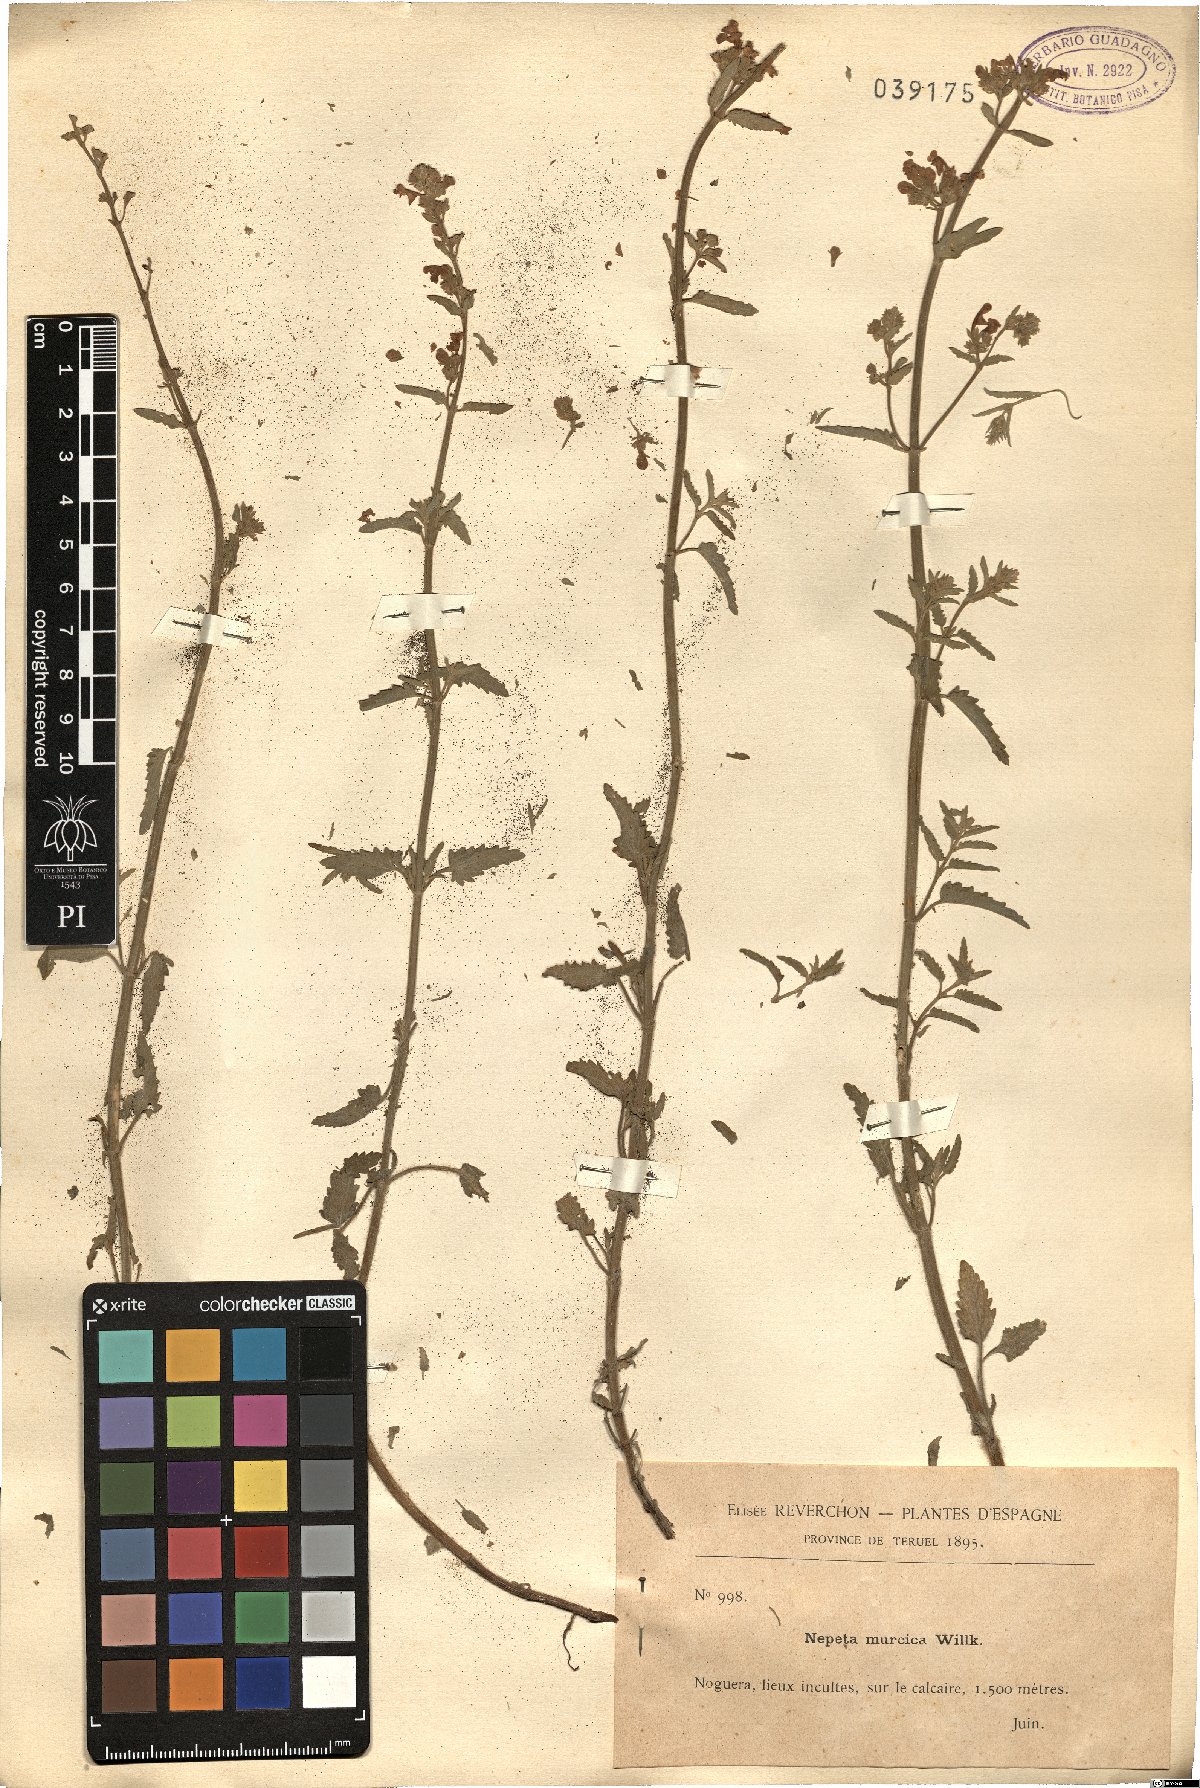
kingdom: Plantae
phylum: Tracheophyta
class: Magnoliopsida
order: Lamiales
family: Lamiaceae
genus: Nepeta
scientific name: Nepeta nepetella
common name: Lesser catmint
